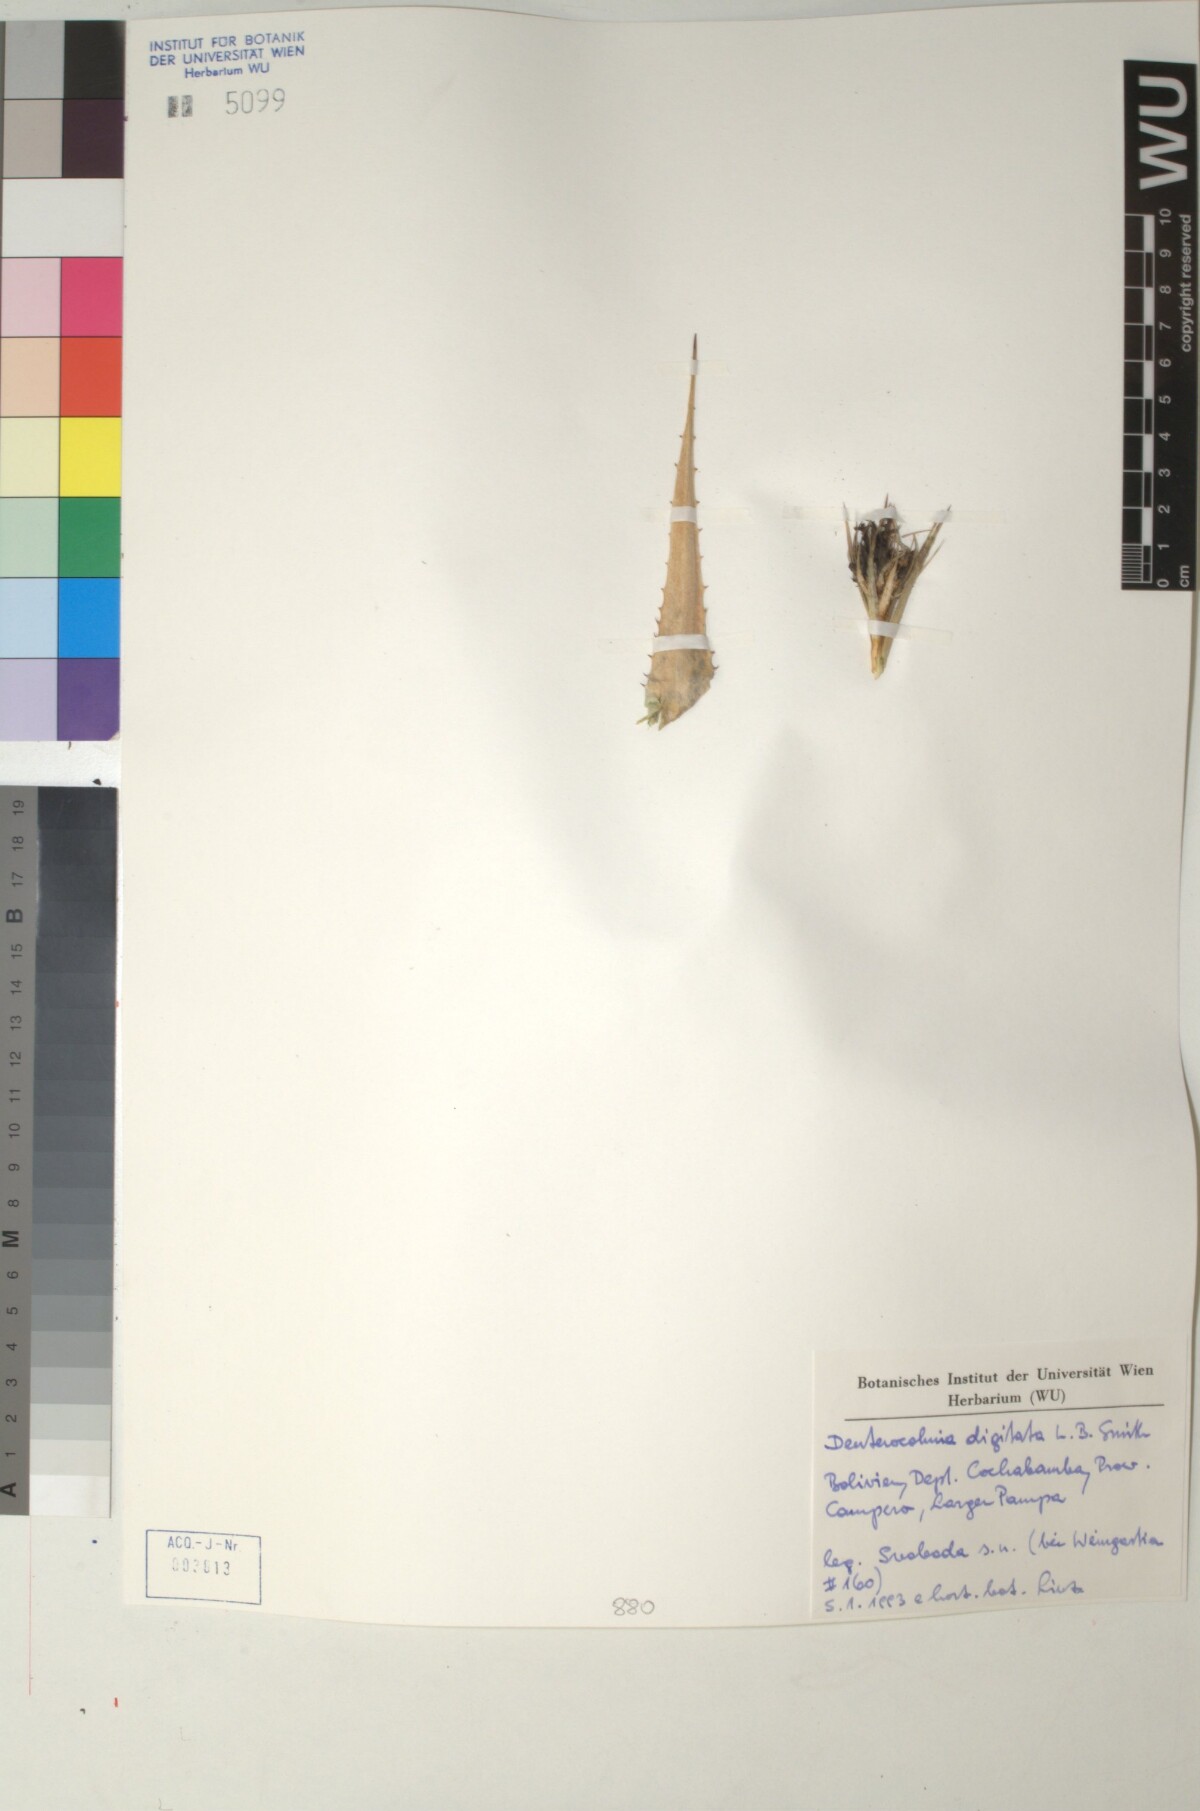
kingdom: Plantae
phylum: Tracheophyta
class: Liliopsida
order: Poales
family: Bromeliaceae
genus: Deuterocohnia
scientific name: Deuterocohnia digitata
